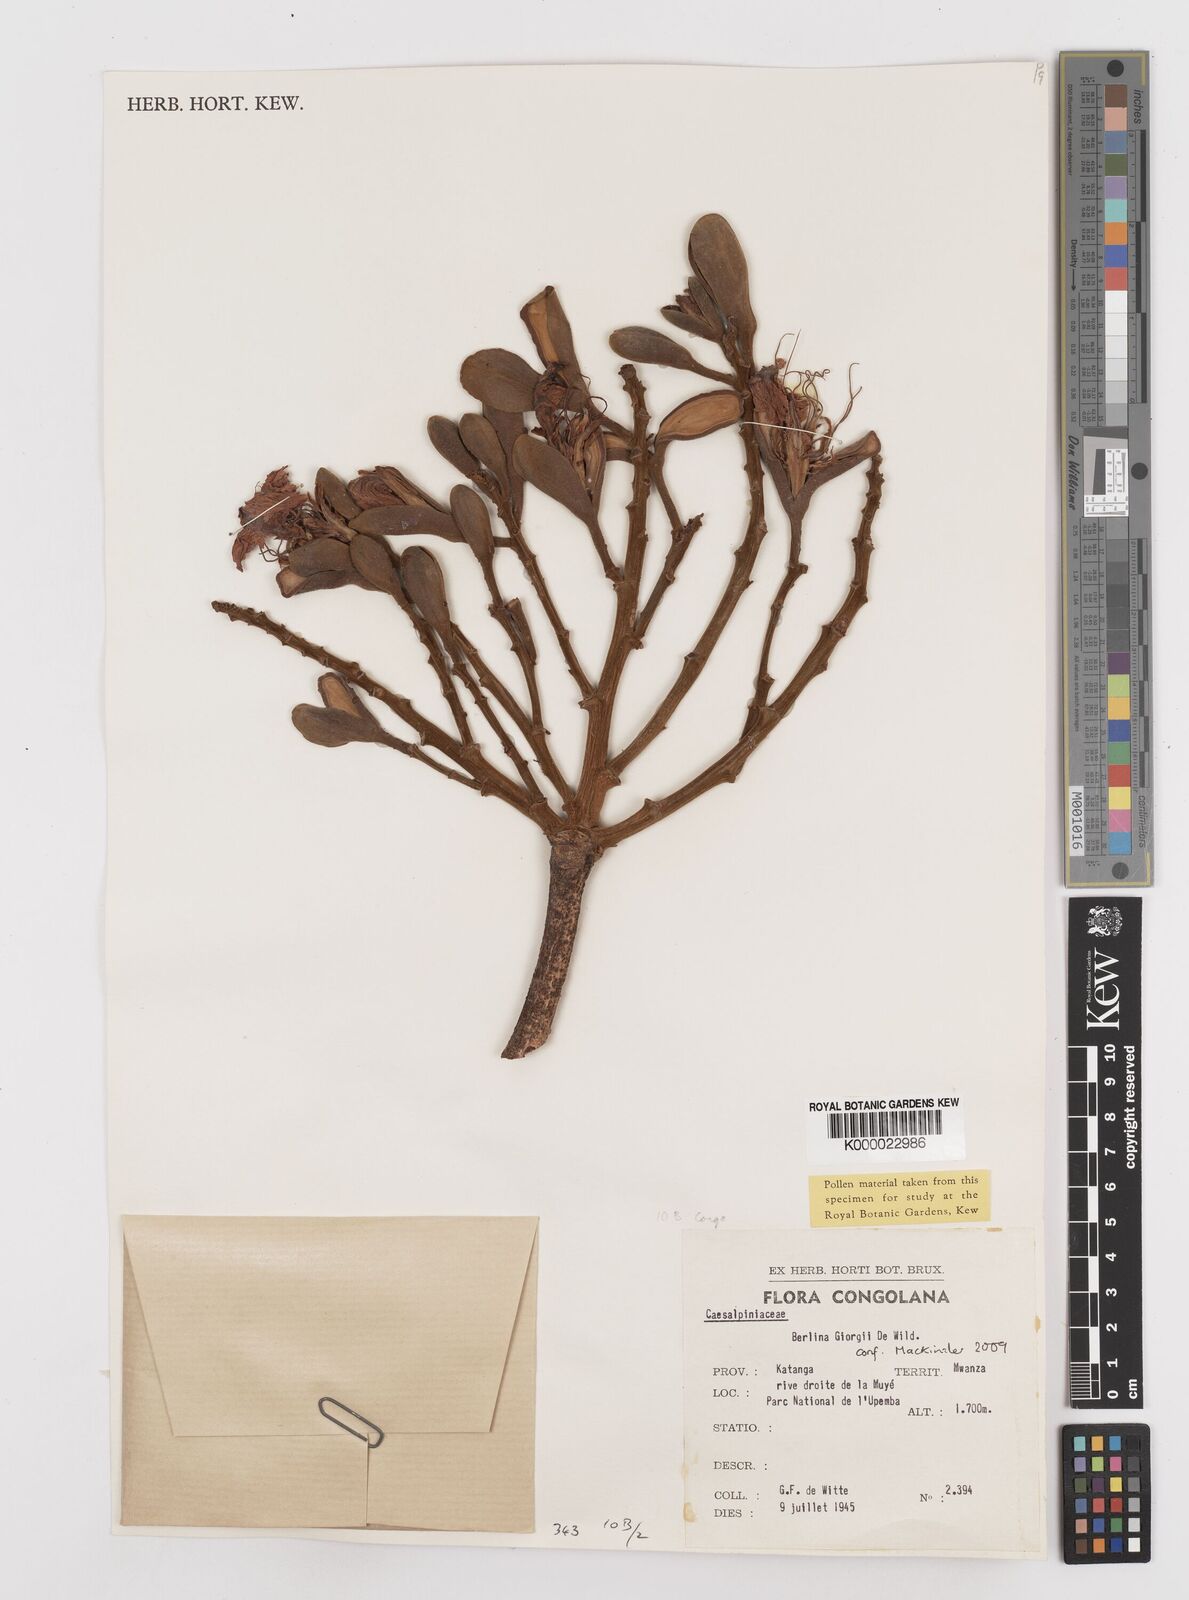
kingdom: Plantae
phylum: Tracheophyta
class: Magnoliopsida
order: Fabales
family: Fabaceae
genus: Berlinia
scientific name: Berlinia giorgii
